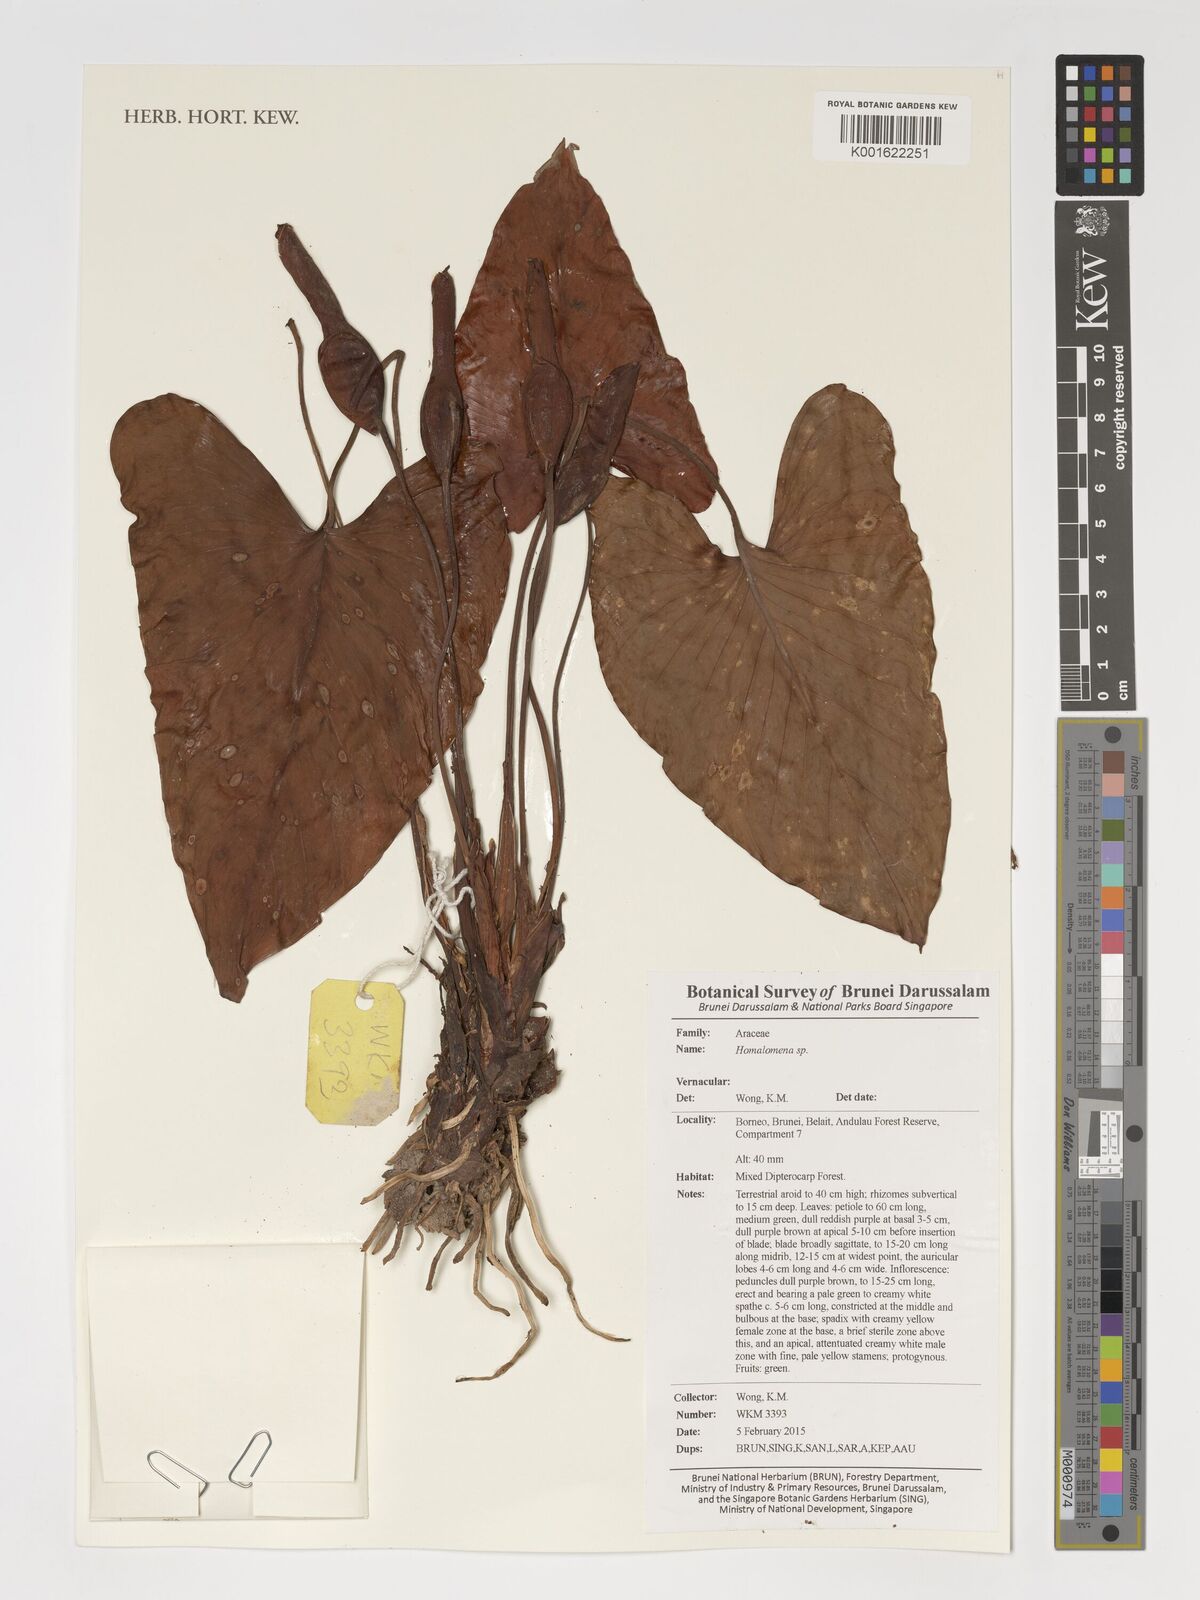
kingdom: Plantae
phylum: Tracheophyta
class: Liliopsida
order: Alismatales
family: Araceae
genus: Homalomena
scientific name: Homalomena
